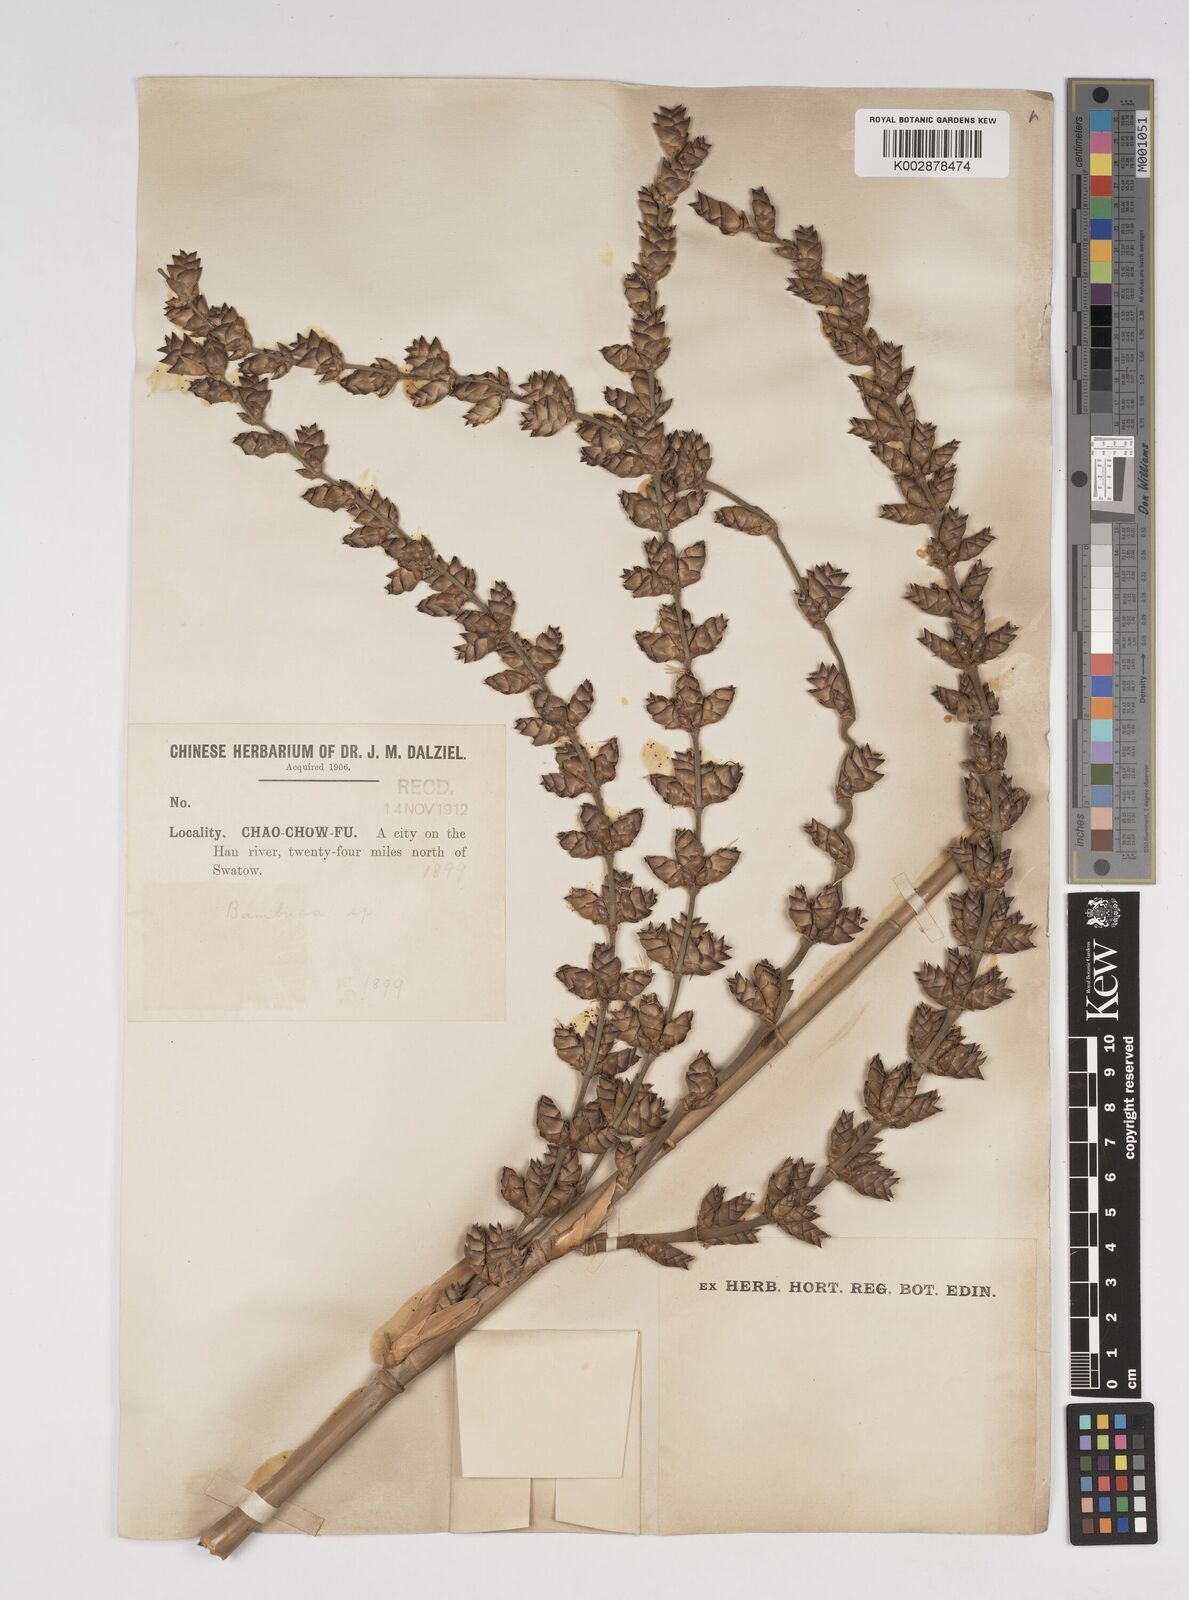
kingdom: Plantae
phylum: Tracheophyta
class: Liliopsida
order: Poales
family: Poaceae
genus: Dendrocalamus
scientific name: Dendrocalamus latiflorus
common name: Giant bamboo
